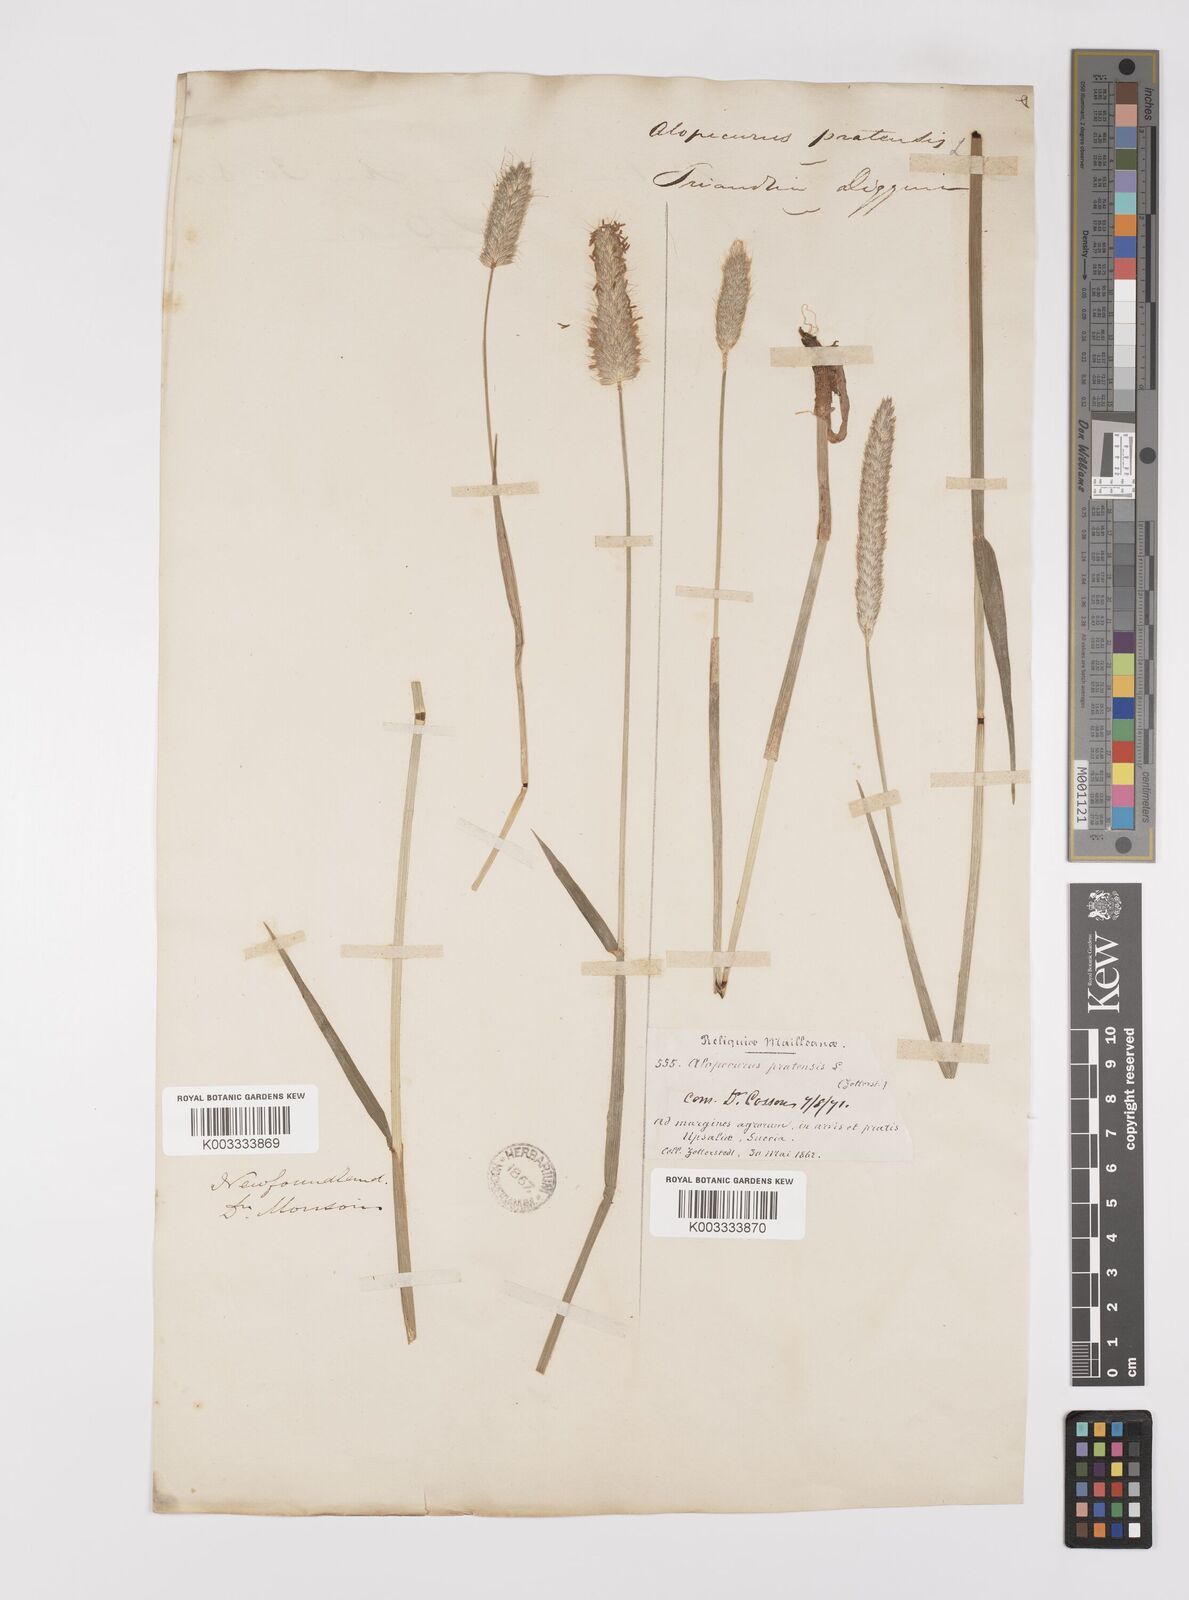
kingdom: Plantae
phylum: Tracheophyta
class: Liliopsida
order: Poales
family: Poaceae
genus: Alopecurus
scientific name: Alopecurus pratensis
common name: Meadow foxtail
